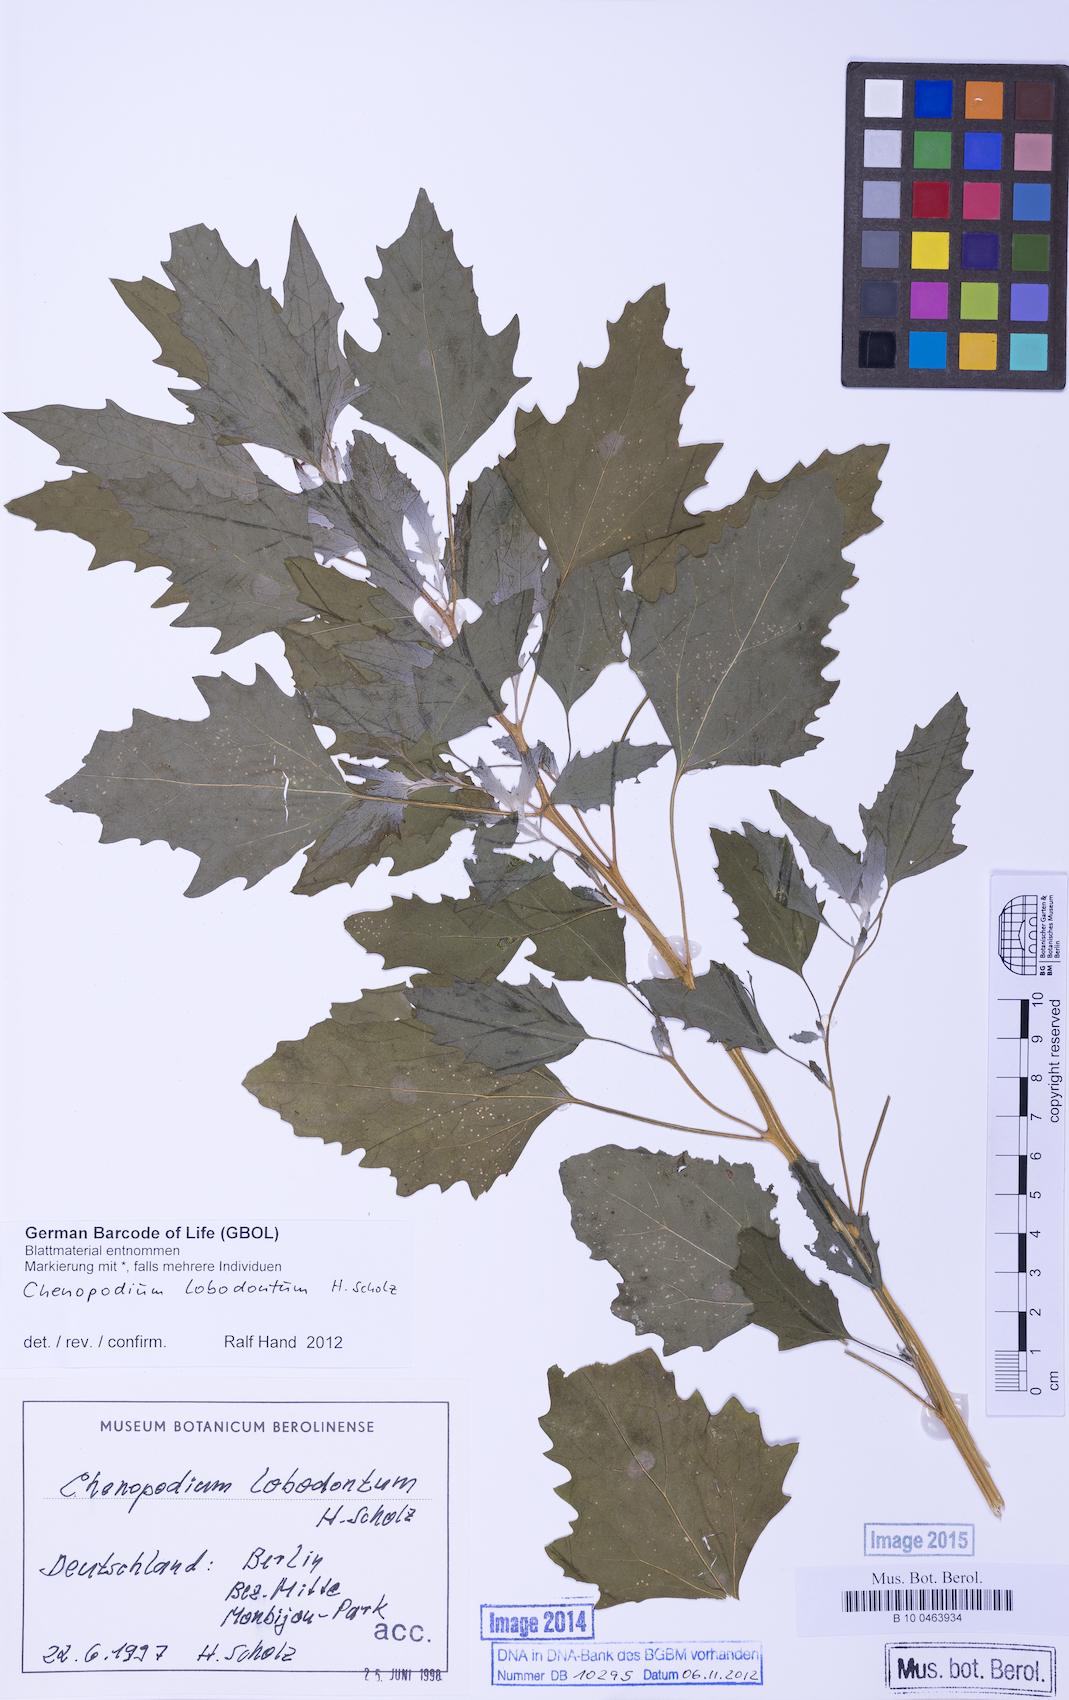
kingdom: Plantae
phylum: Tracheophyta
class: Magnoliopsida
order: Caryophyllales
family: Amaranthaceae
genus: Chenopodium
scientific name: Chenopodium lobodontum
